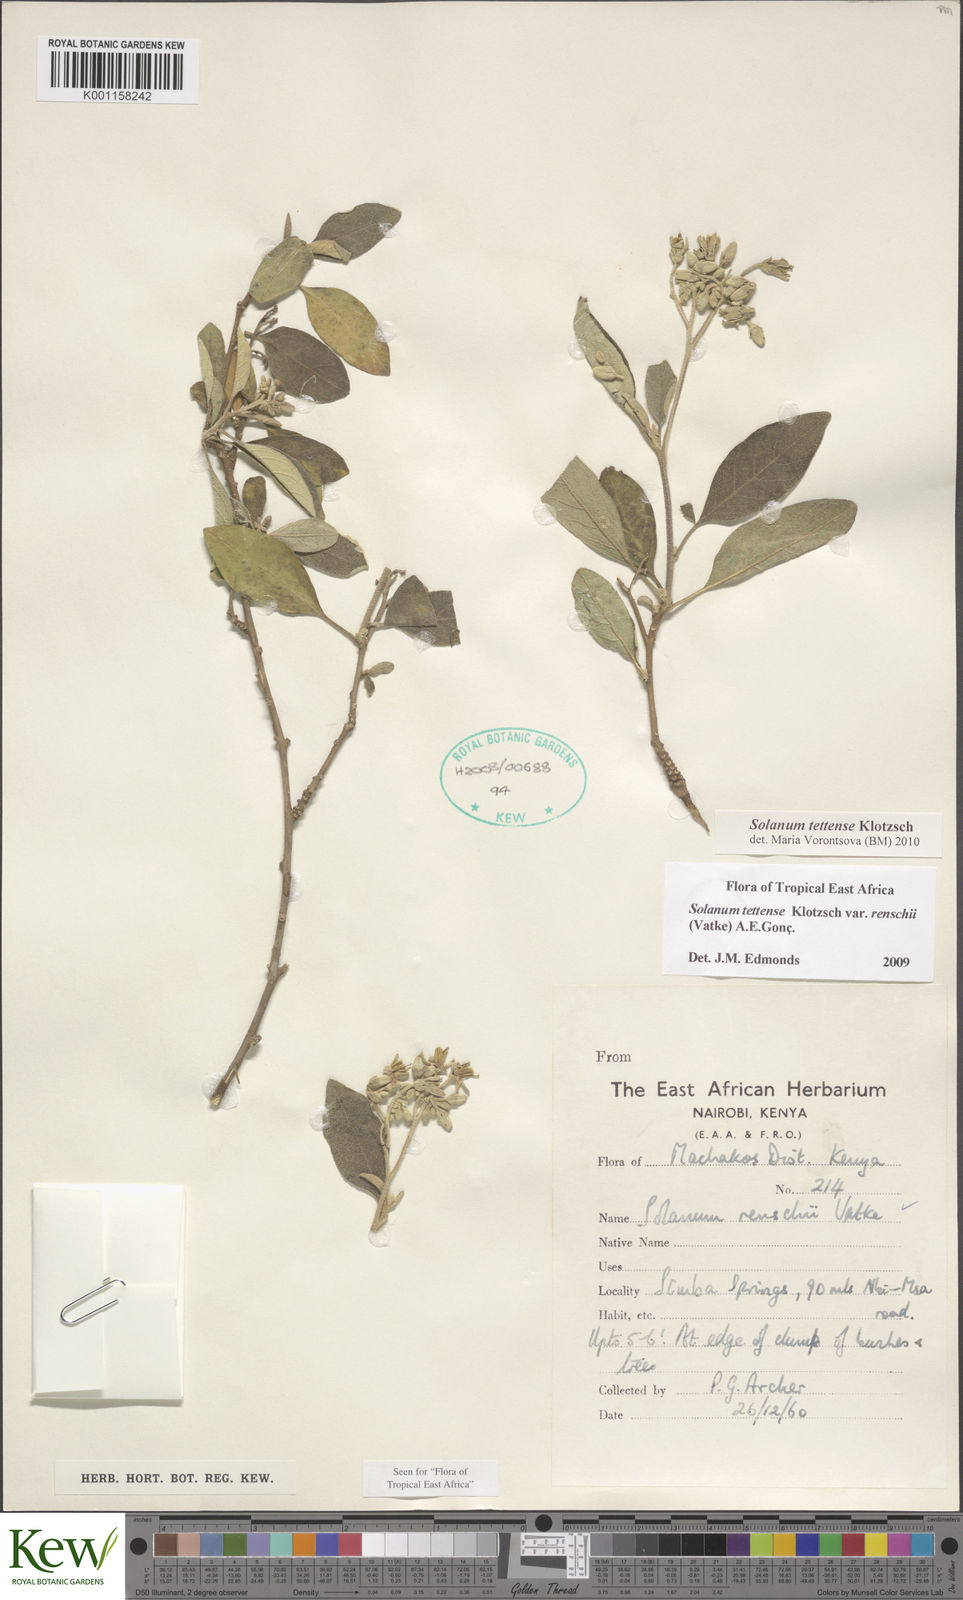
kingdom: Plantae
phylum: Tracheophyta
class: Magnoliopsida
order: Solanales
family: Solanaceae
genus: Solanum
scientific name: Solanum tettense
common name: Mozambique bitter apple
